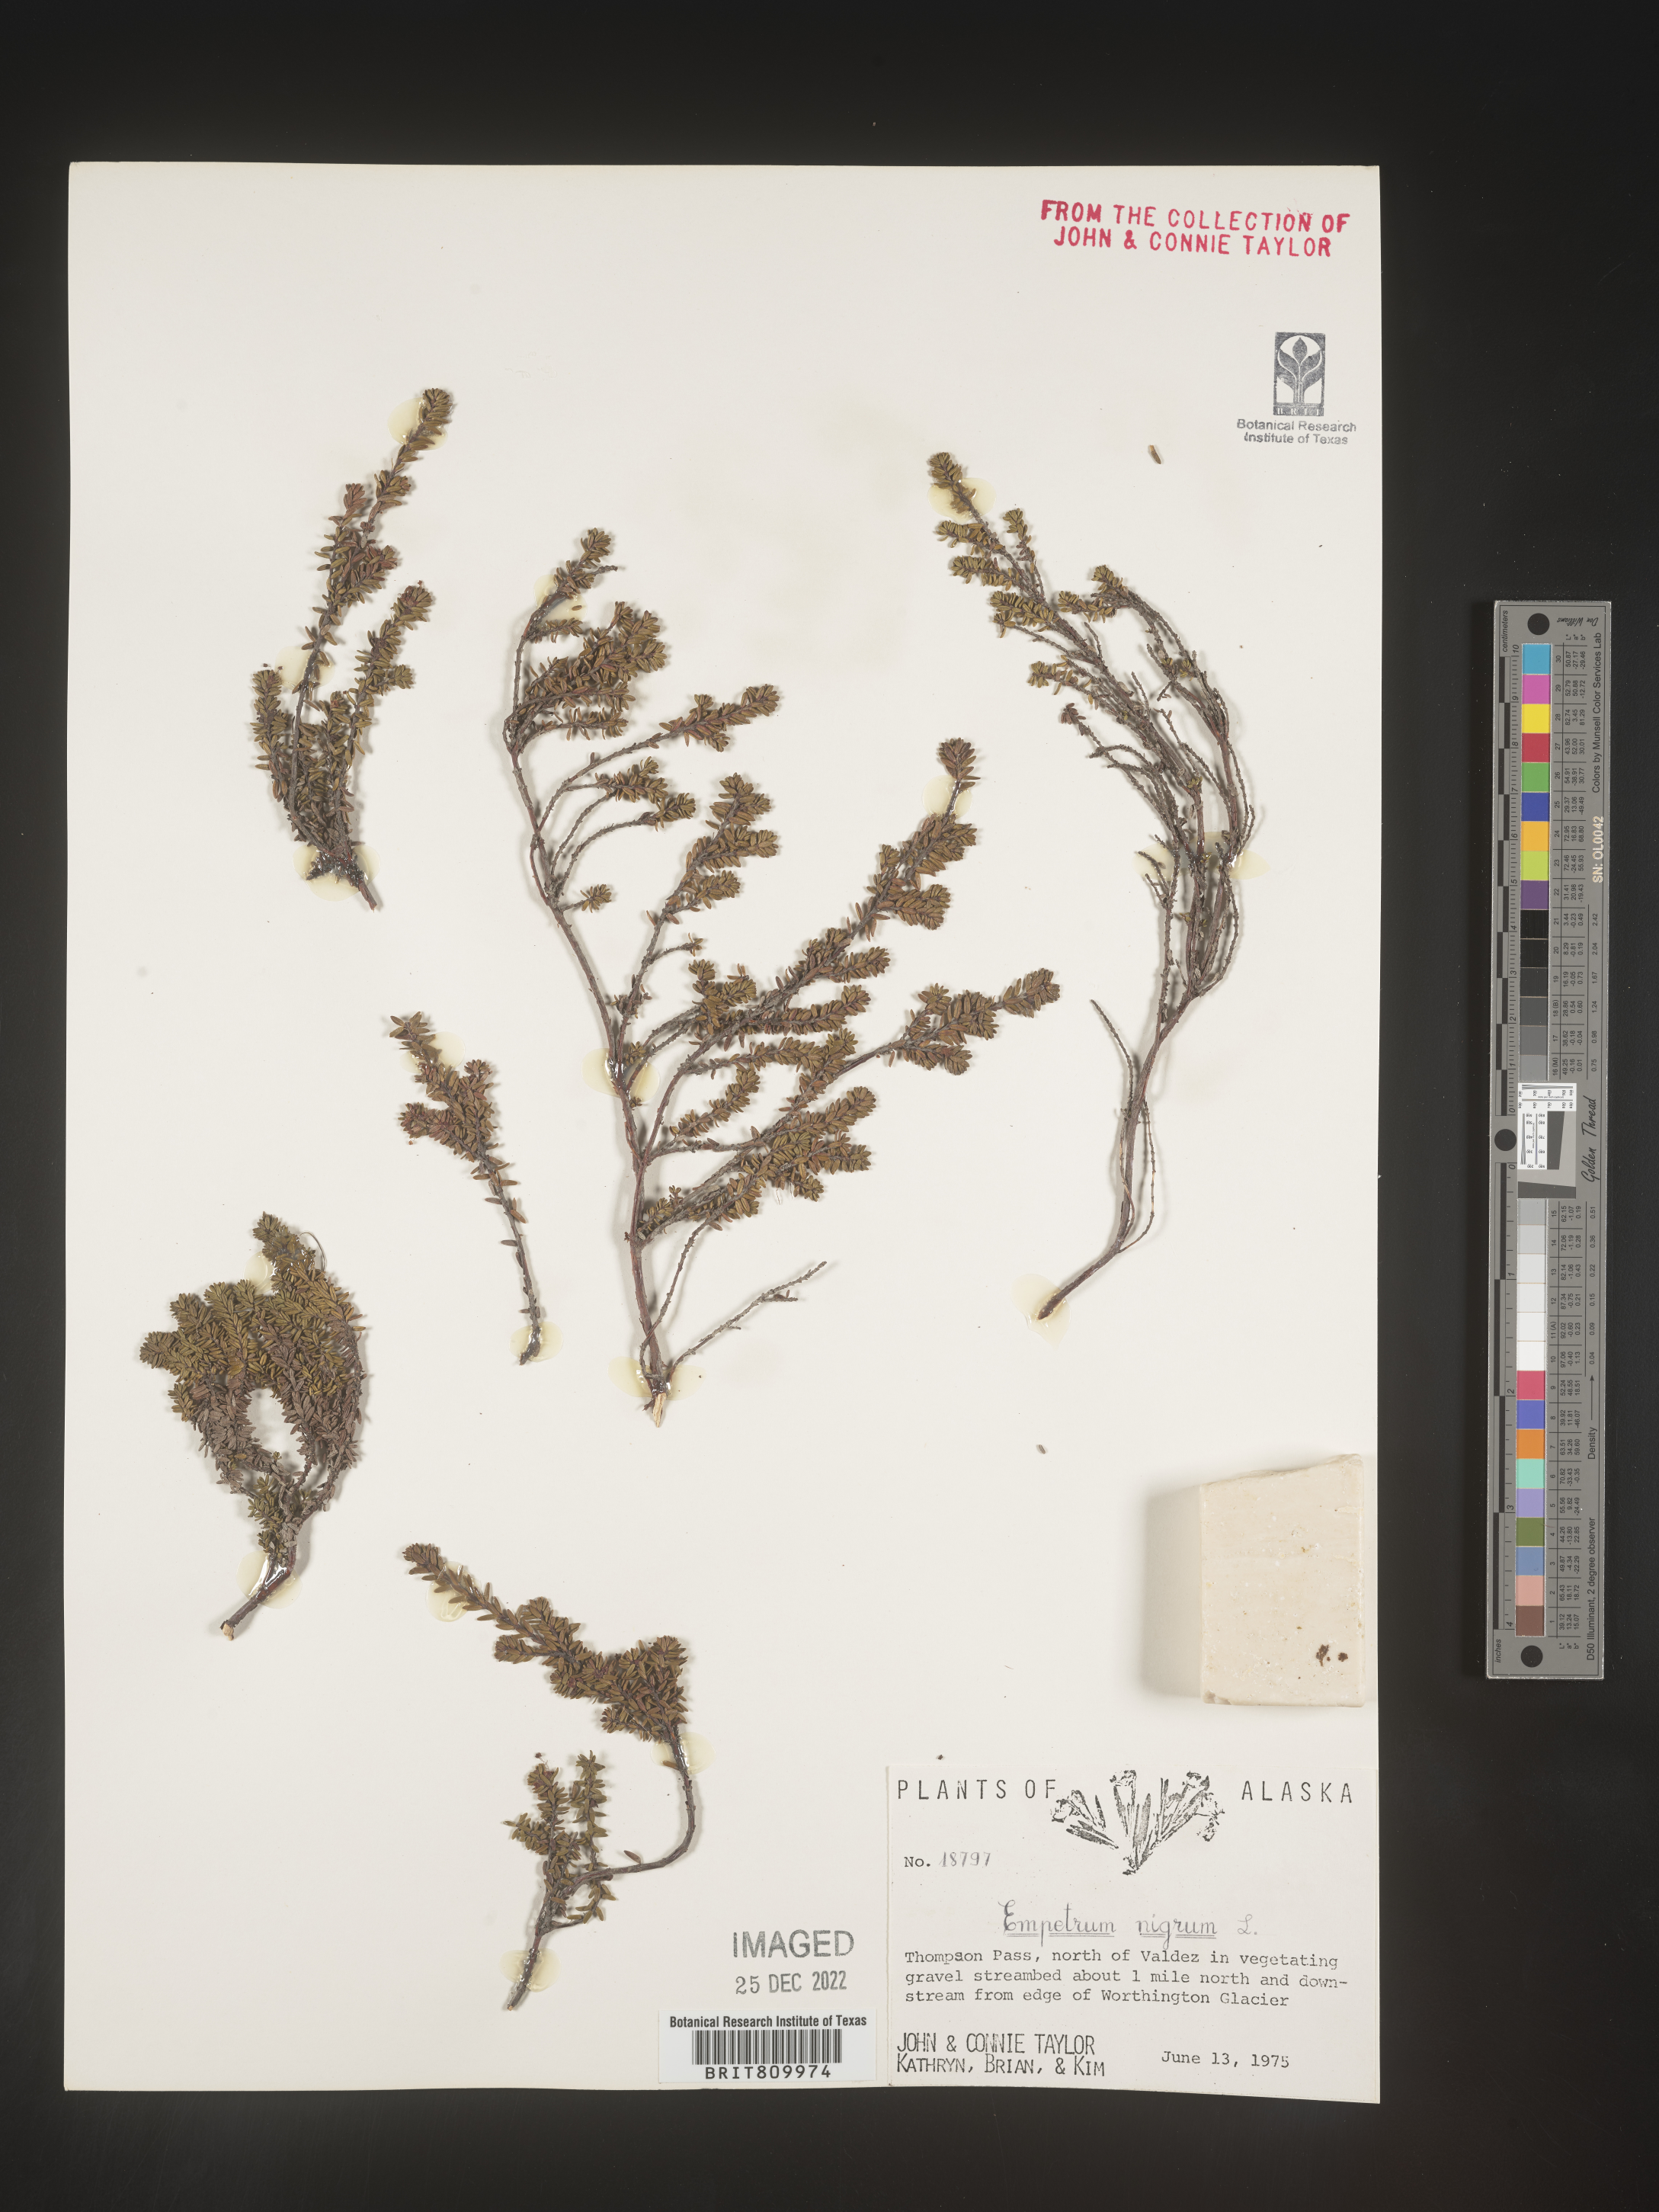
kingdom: Plantae
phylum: Tracheophyta
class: Magnoliopsida
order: Ericales
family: Ericaceae
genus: Empetrum
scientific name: Empetrum
